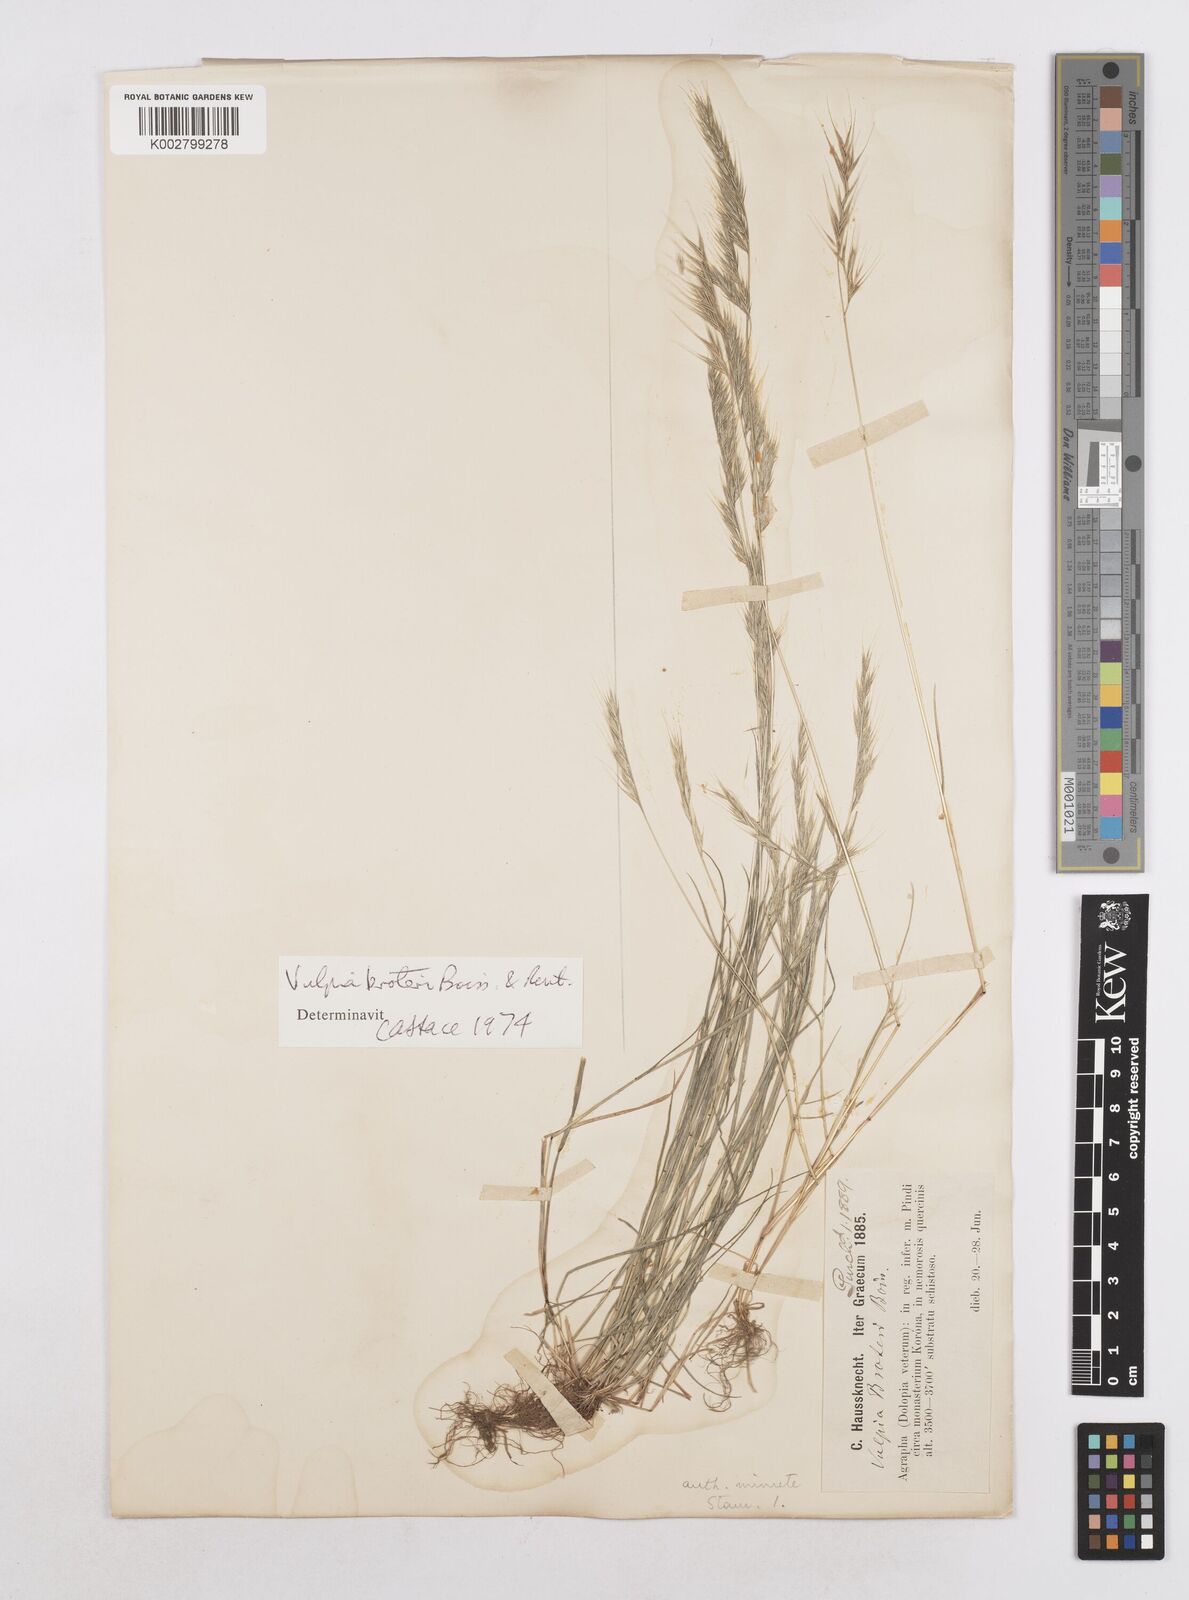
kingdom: Plantae
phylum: Tracheophyta
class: Liliopsida
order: Poales
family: Poaceae
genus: Festuca
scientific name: Festuca muralis
